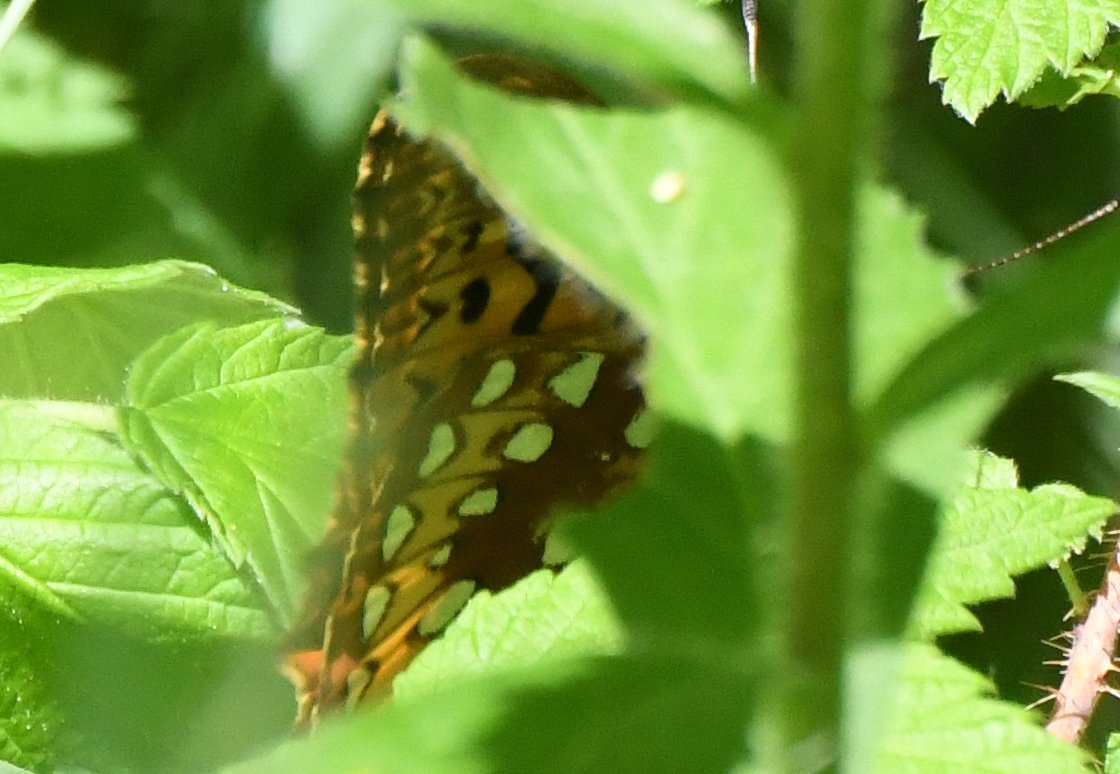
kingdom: Animalia
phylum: Arthropoda
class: Insecta
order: Lepidoptera
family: Nymphalidae
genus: Speyeria
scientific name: Speyeria cybele
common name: Great Spangled Fritillary
